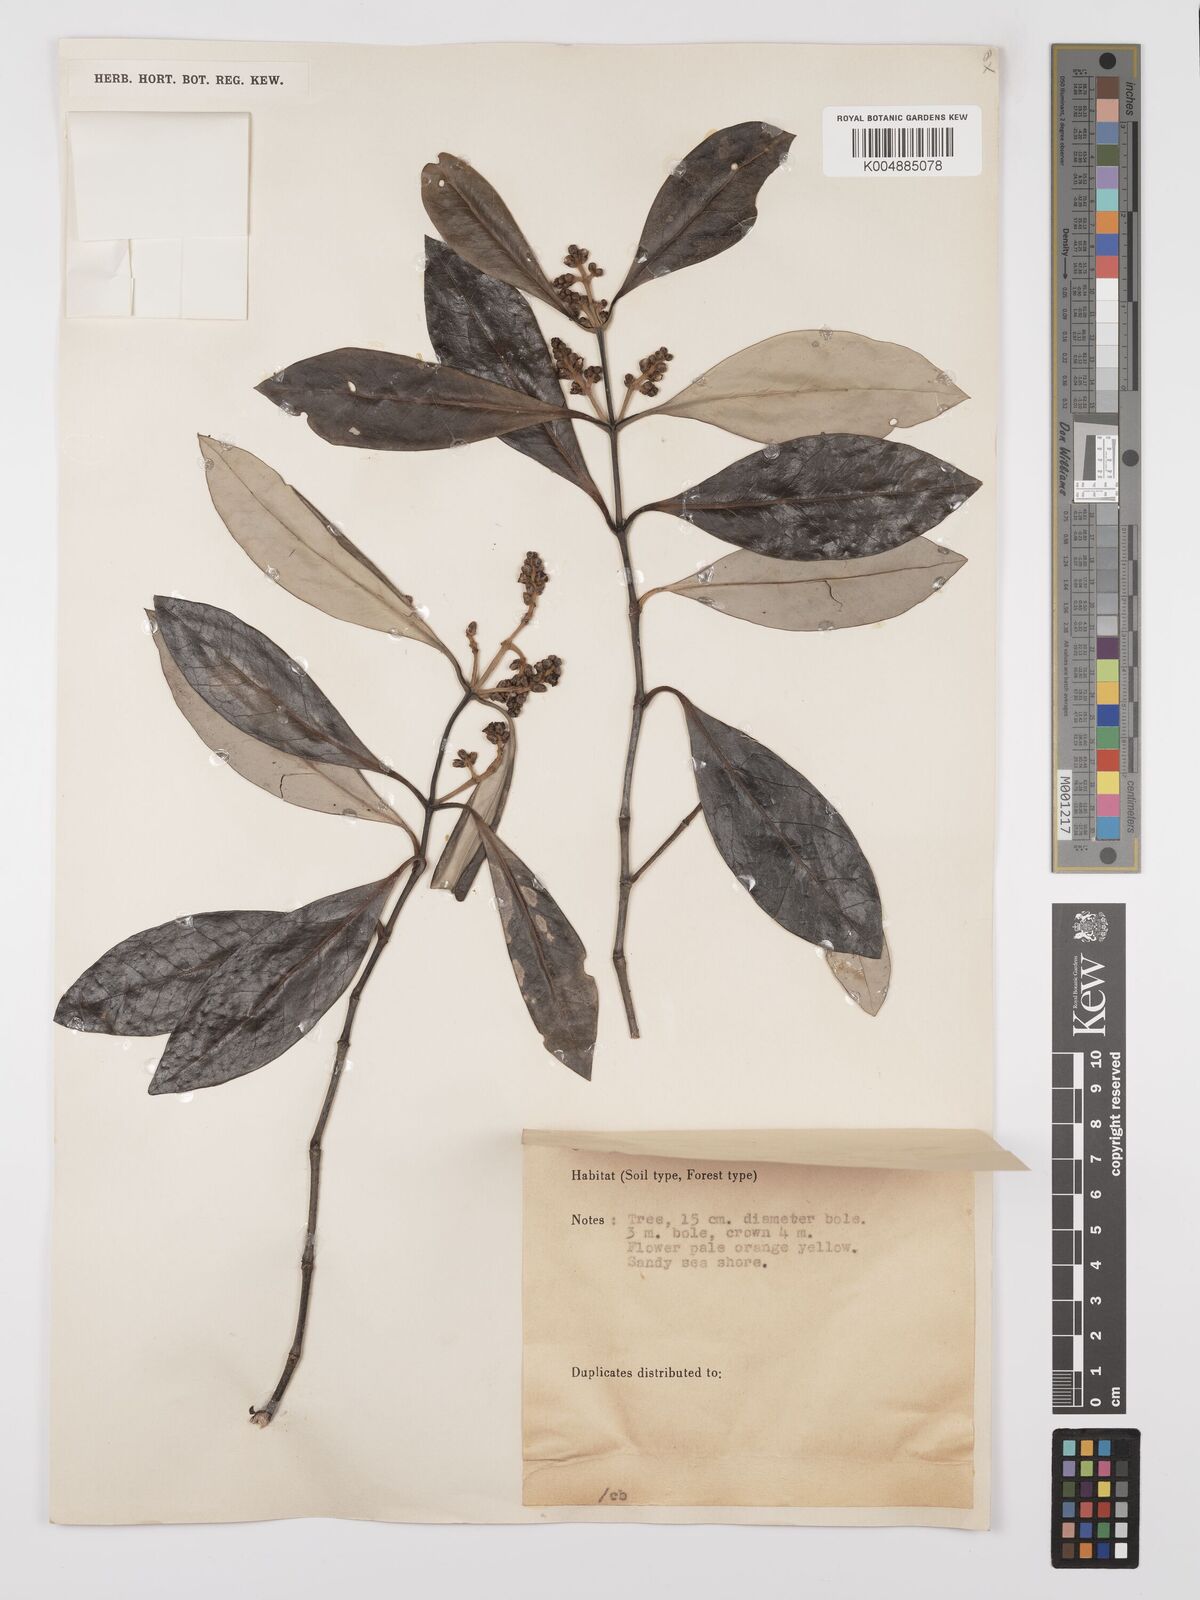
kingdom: Plantae
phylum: Tracheophyta
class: Magnoliopsida
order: Lamiales
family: Acanthaceae
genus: Avicennia
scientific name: Avicennia alba
